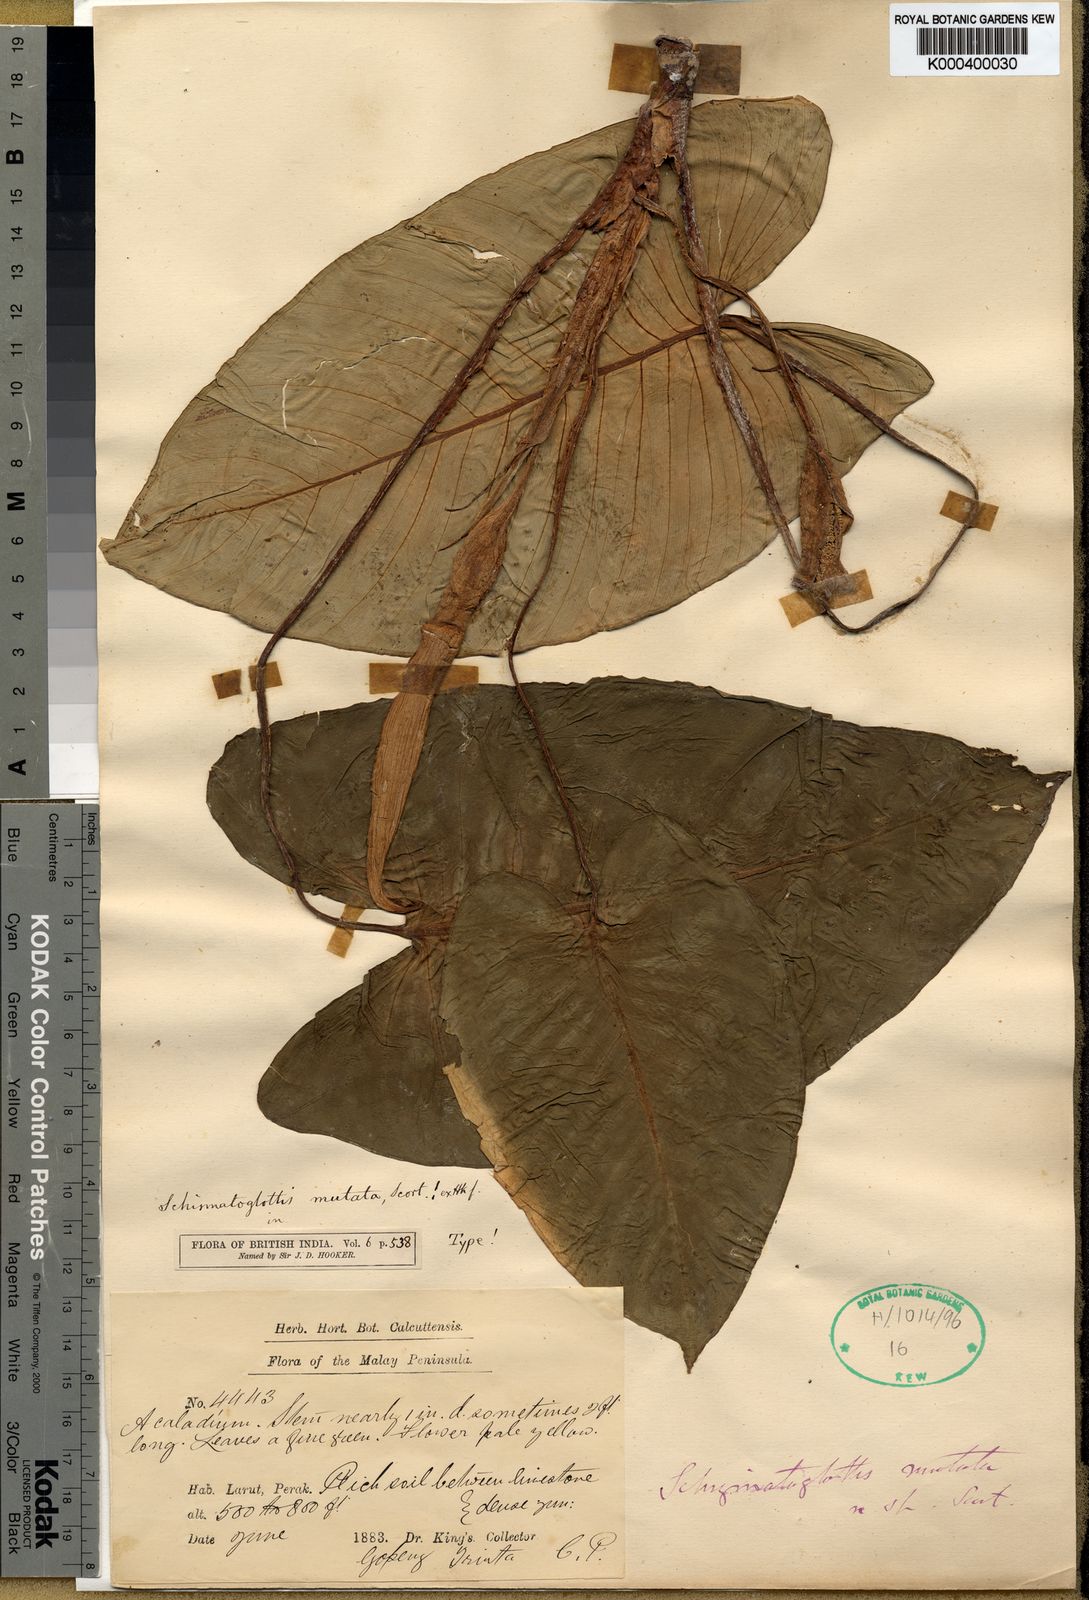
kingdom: Plantae
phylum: Tracheophyta
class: Liliopsida
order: Alismatales
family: Araceae
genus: Apoballis
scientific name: Apoballis mutata
